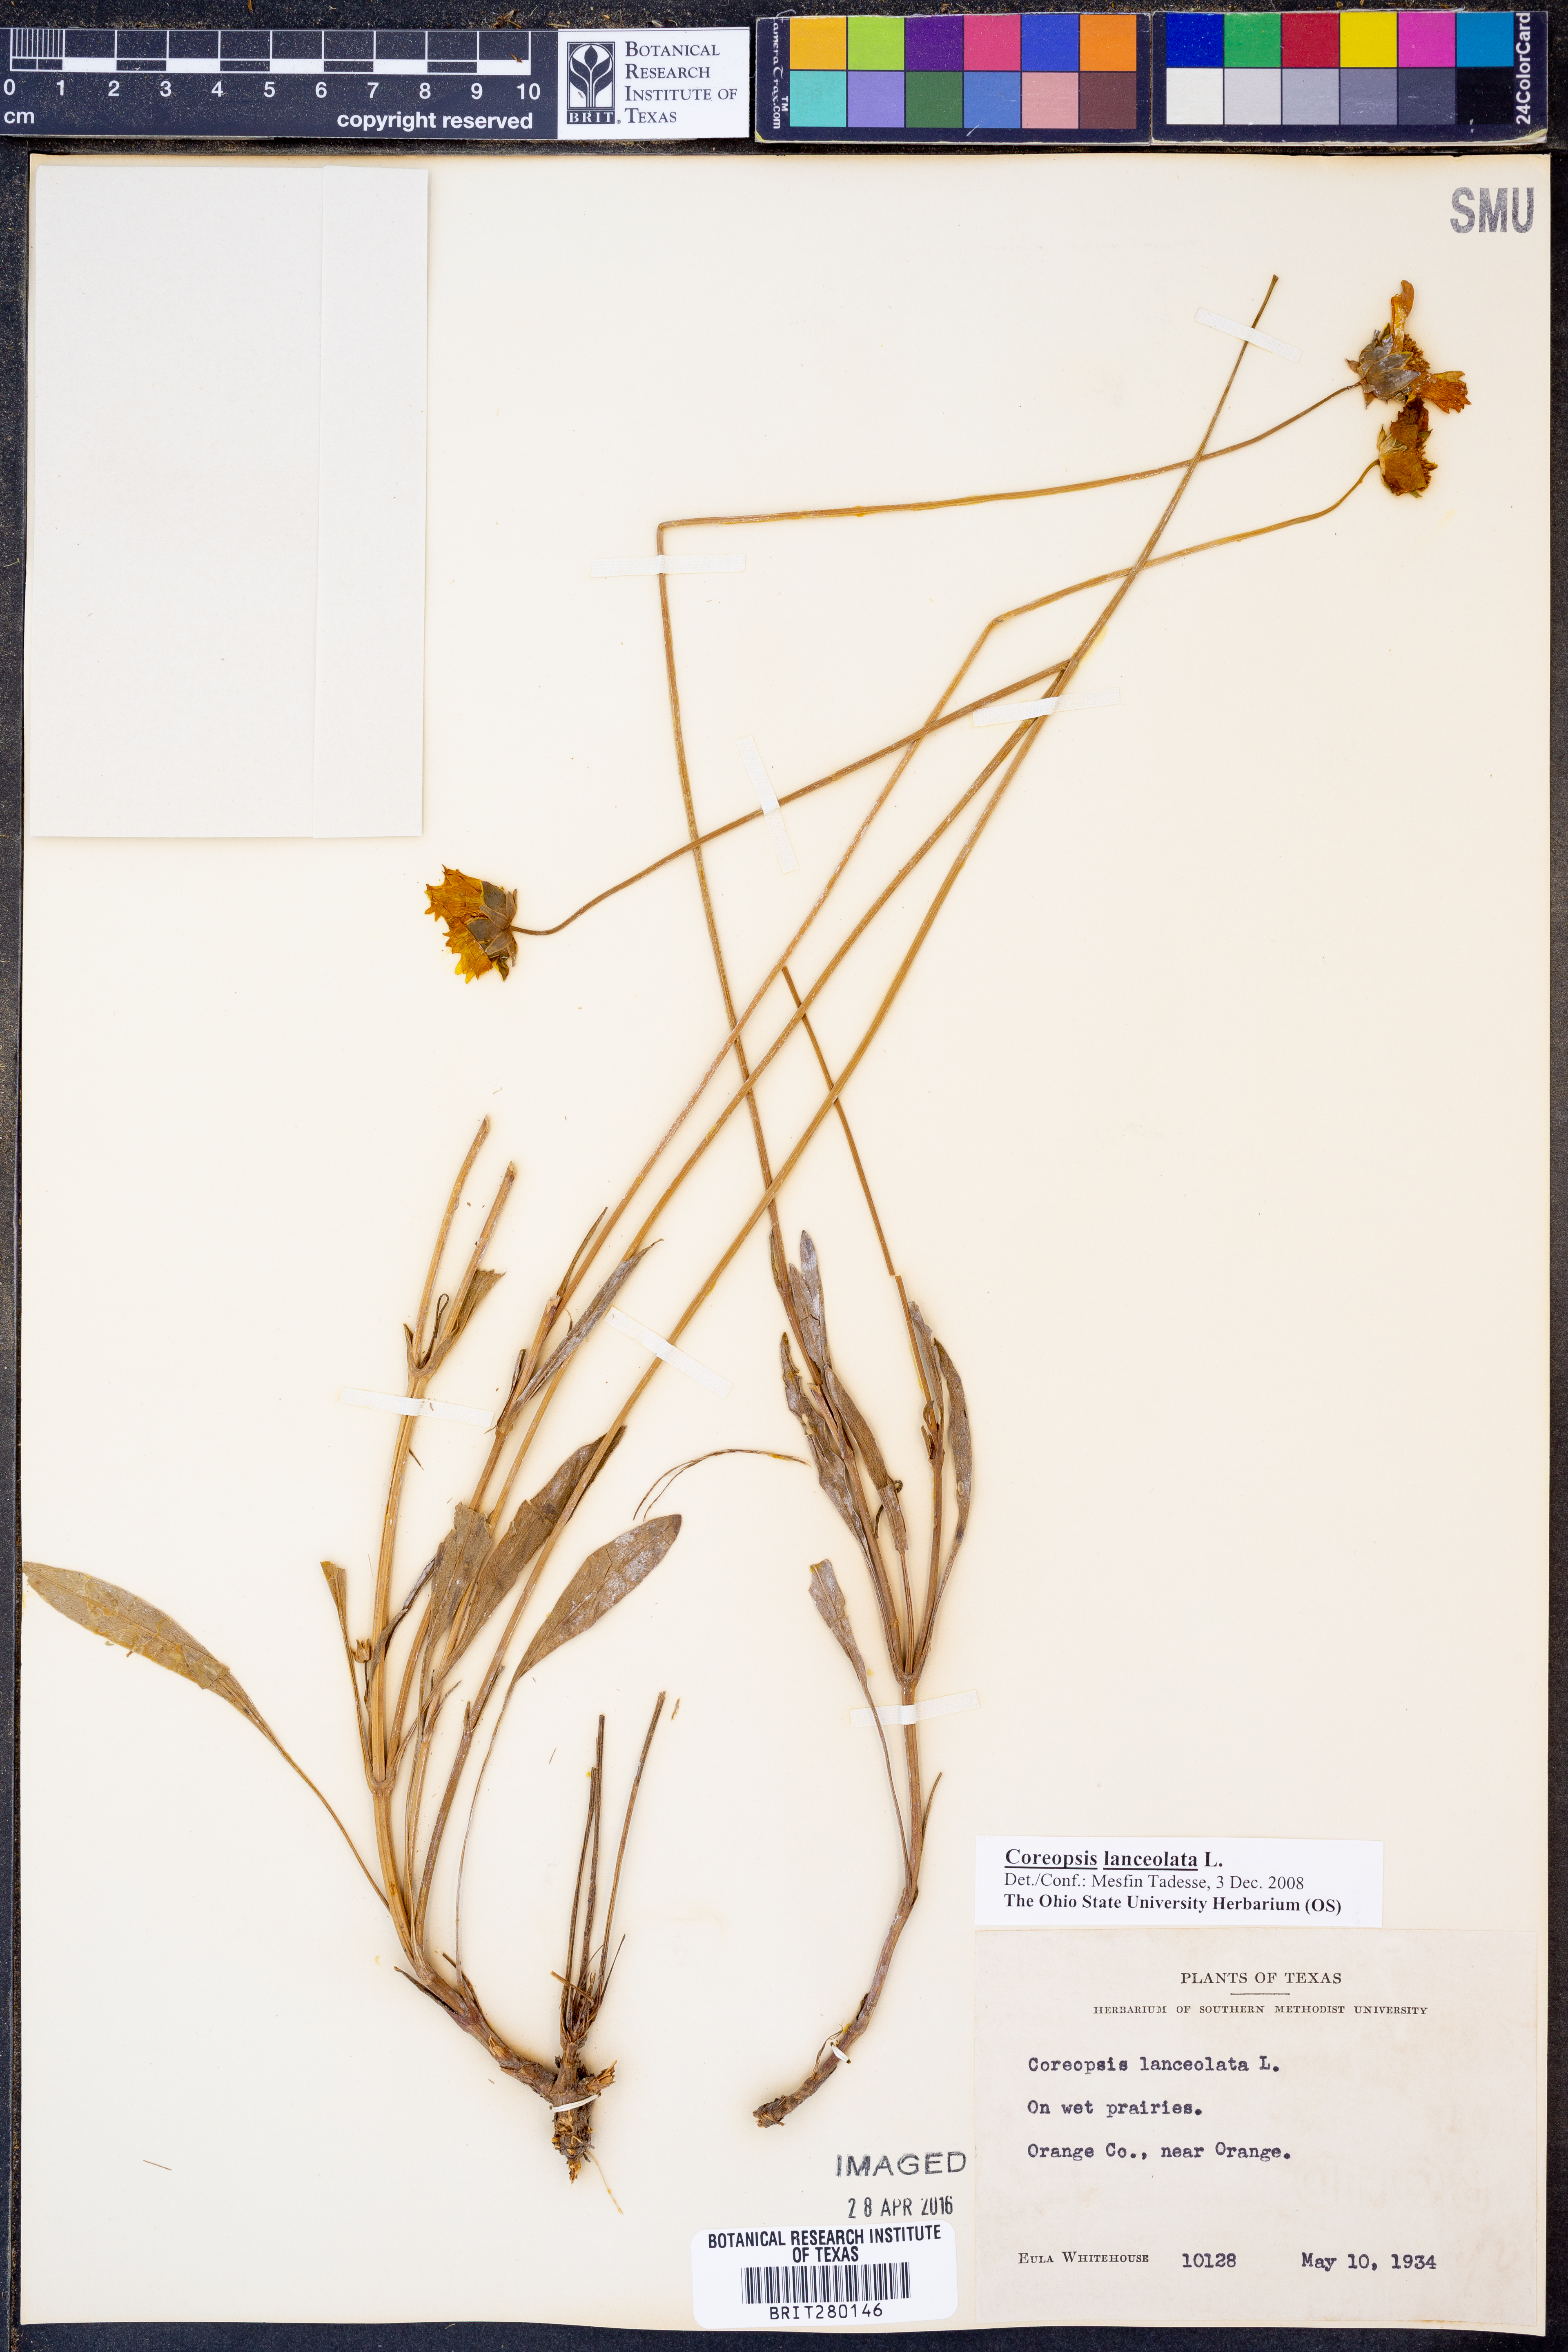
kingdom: Plantae
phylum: Tracheophyta
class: Magnoliopsida
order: Asterales
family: Asteraceae
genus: Coreopsis
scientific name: Coreopsis lanceolata
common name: Garden coreopsis
